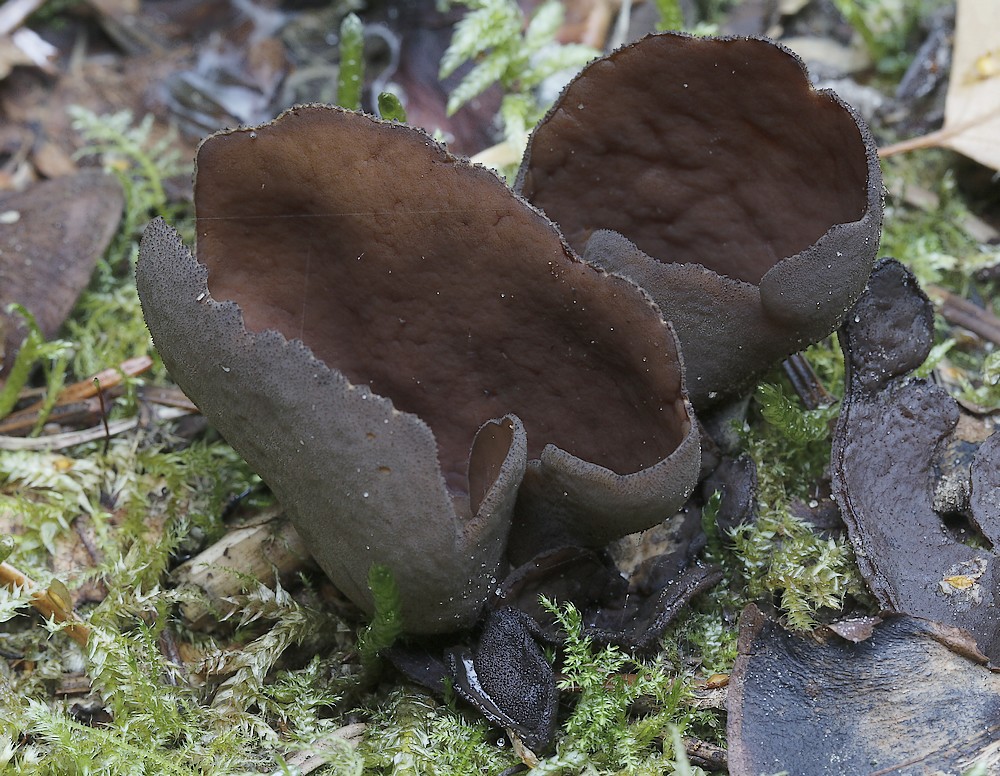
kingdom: Fungi
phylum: Ascomycota
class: Pezizomycetes
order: Pezizales
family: Otideaceae
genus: Otidea
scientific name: Otidea bufonia
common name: brun ørebæger
